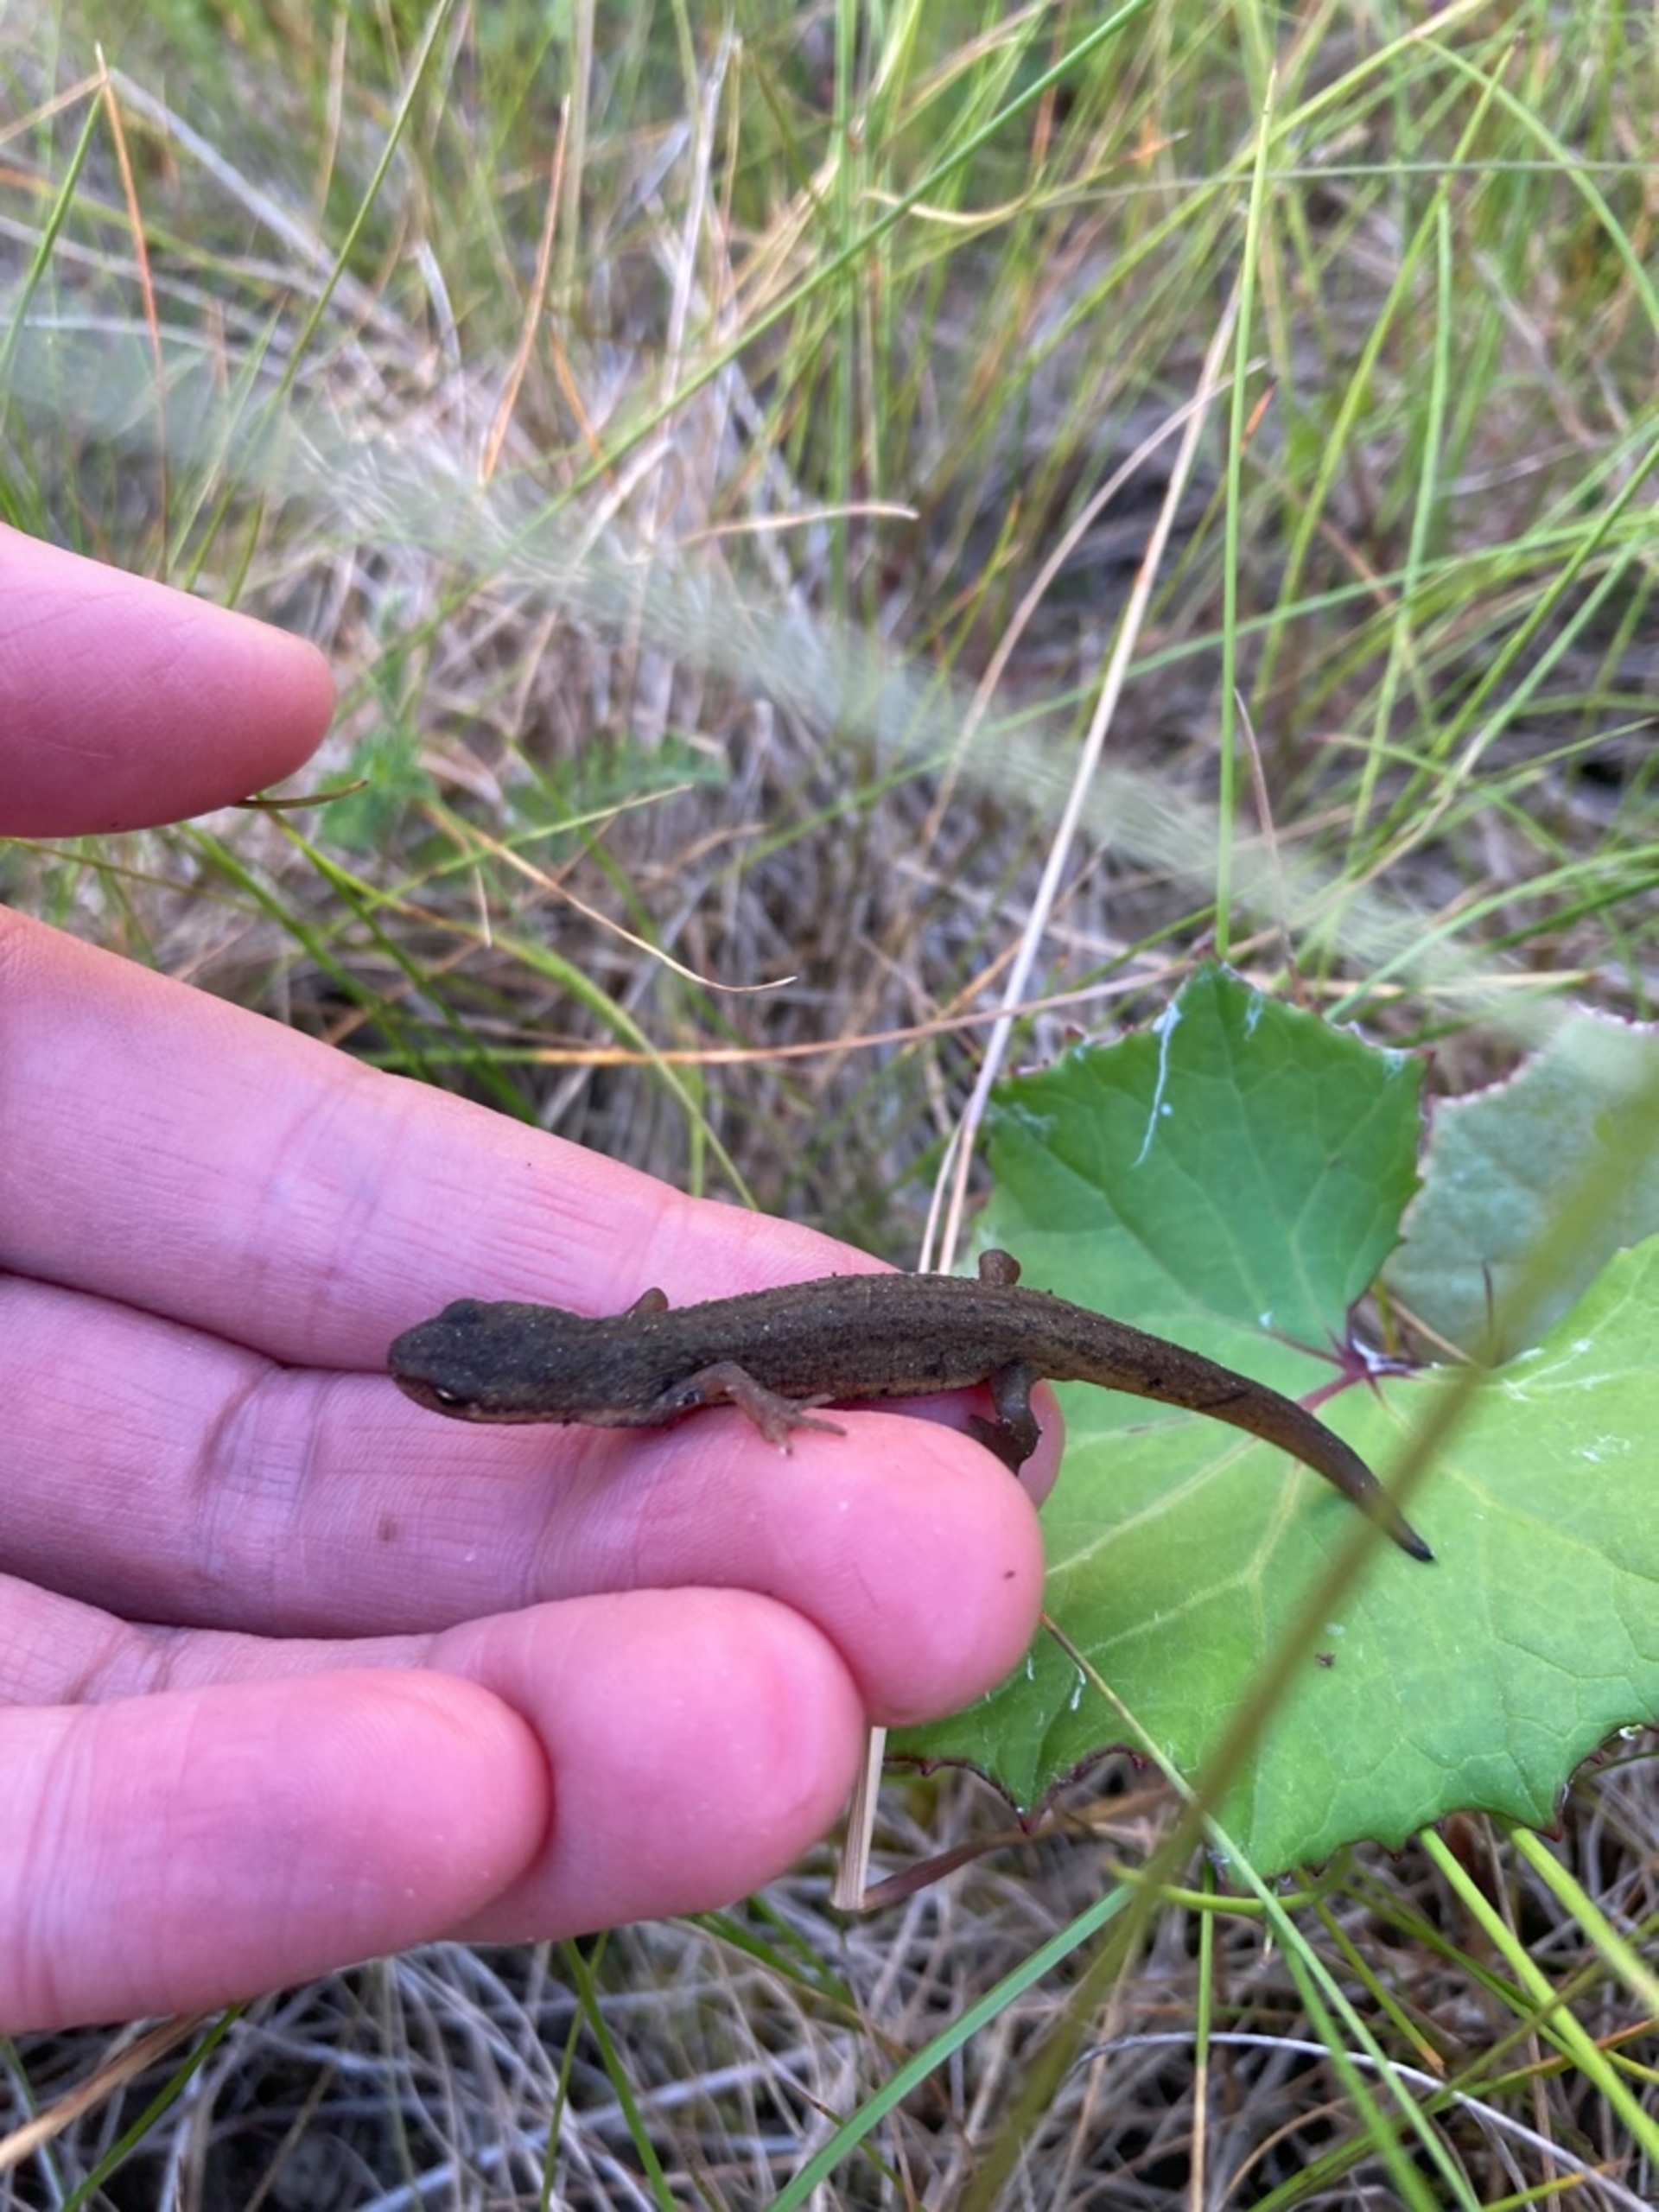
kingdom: Animalia
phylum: Chordata
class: Amphibia
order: Caudata
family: Salamandridae
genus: Lissotriton
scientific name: Lissotriton vulgaris
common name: Lille vandsalamander
